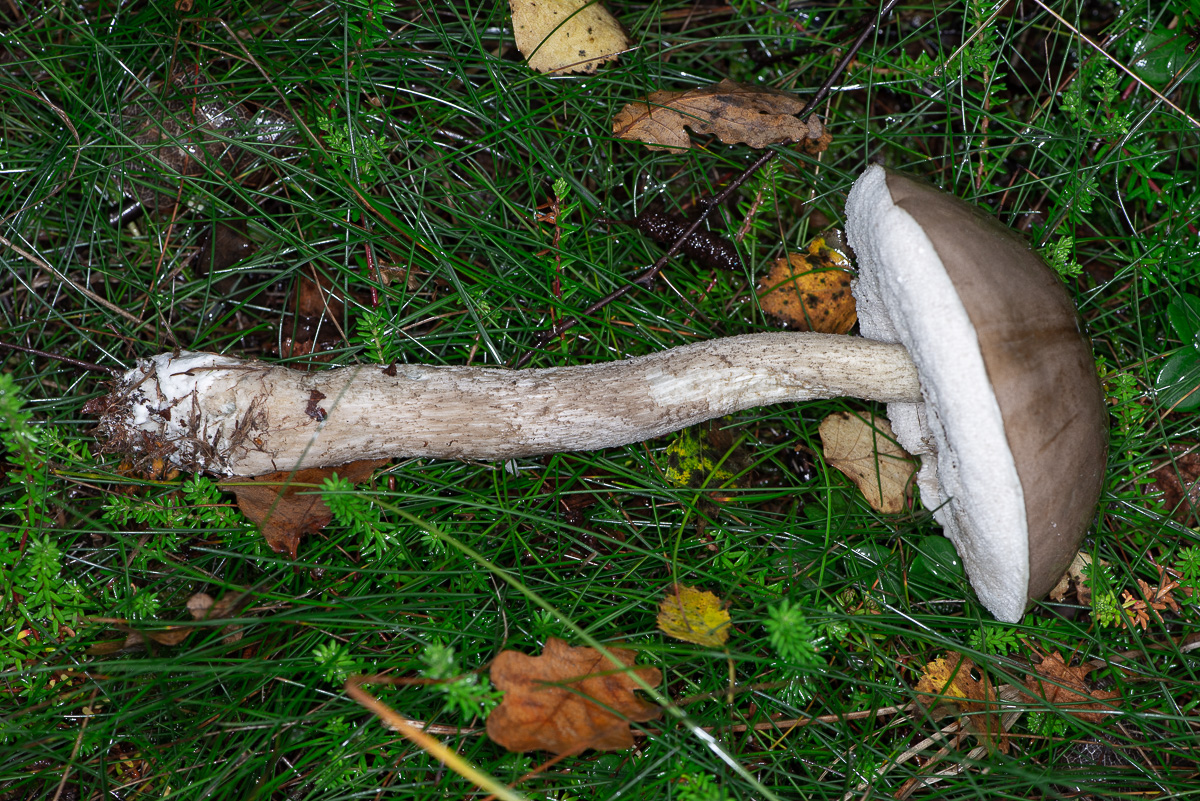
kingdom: Fungi
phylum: Basidiomycota
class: Agaricomycetes
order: Boletales
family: Boletaceae
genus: Leccinum
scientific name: Leccinum
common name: skælrørhat
